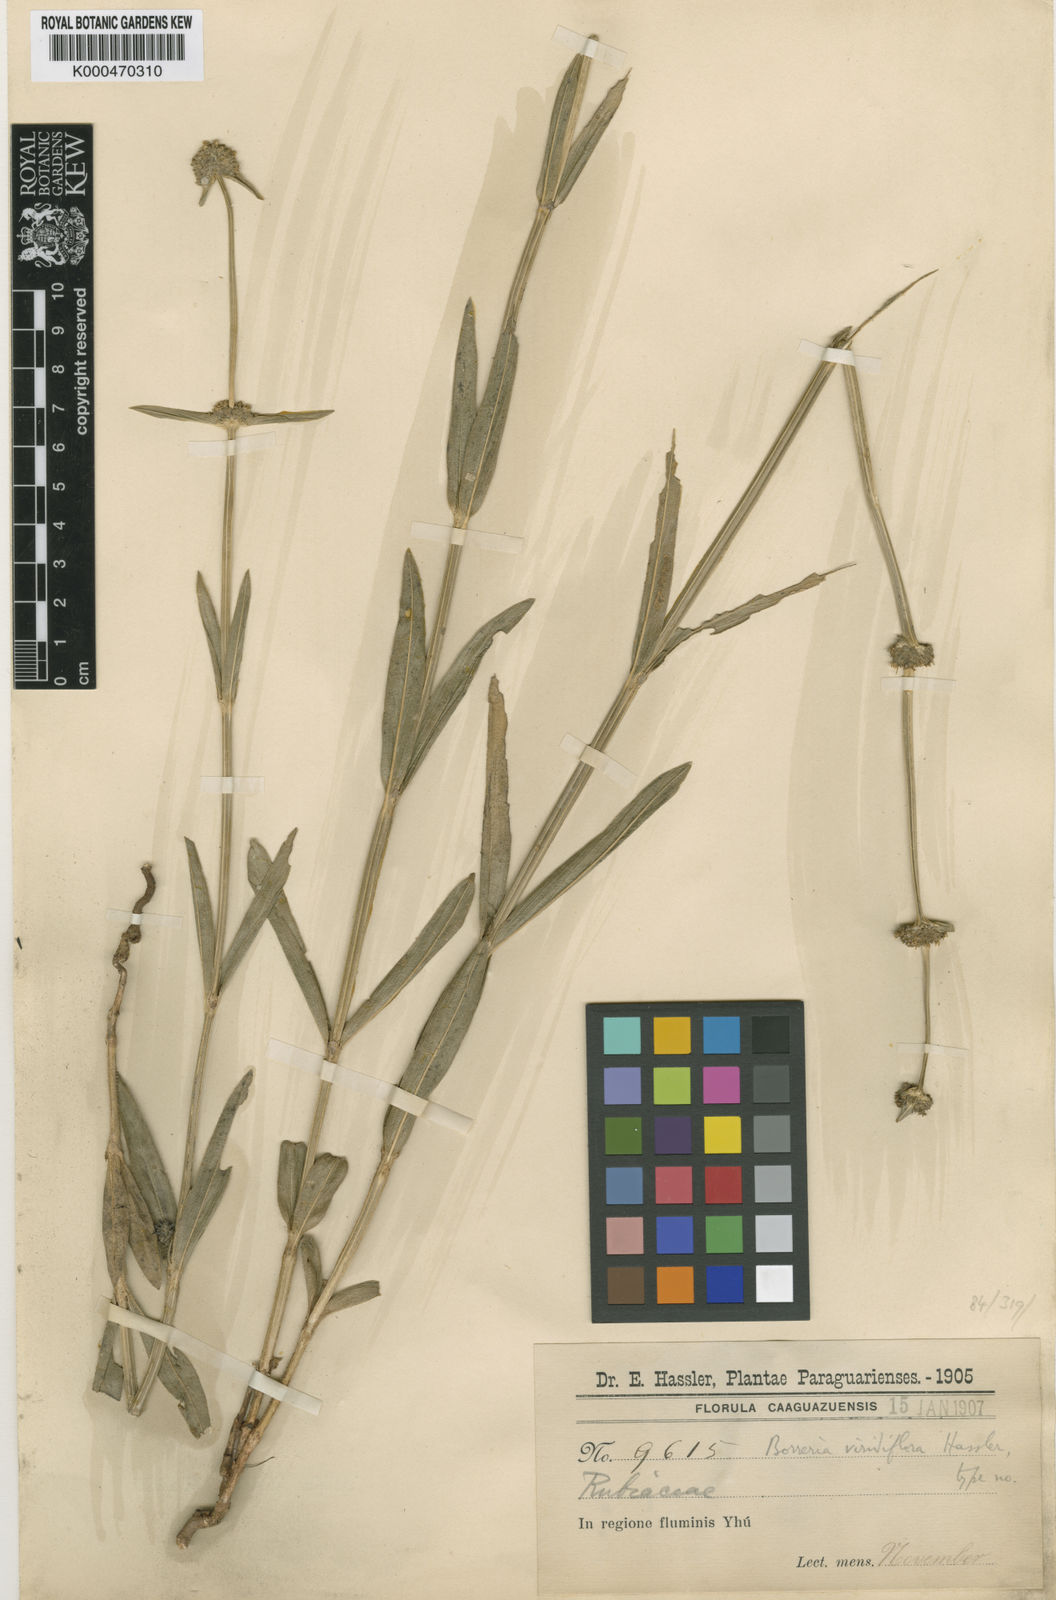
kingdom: Plantae
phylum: Tracheophyta
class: Magnoliopsida
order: Gentianales
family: Rubiaceae
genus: Spermacoce
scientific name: Spermacoce viridiflora
